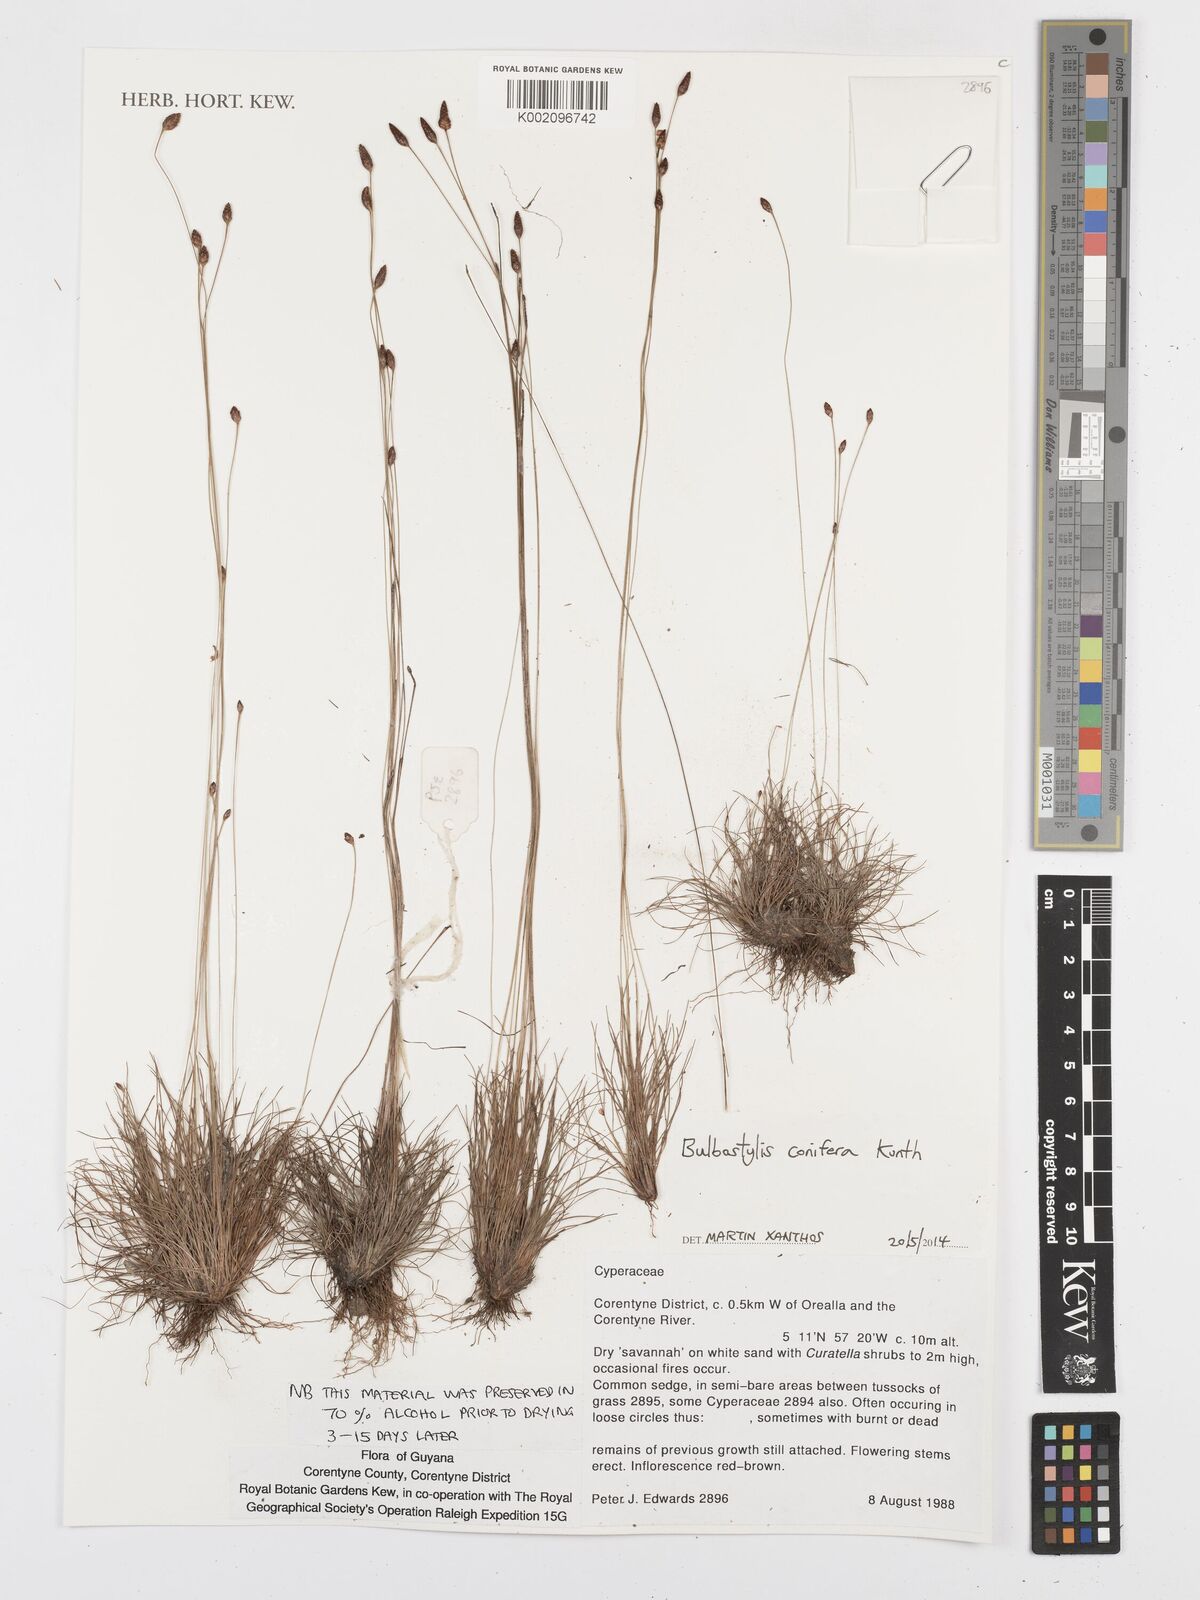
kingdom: Plantae
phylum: Tracheophyta
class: Liliopsida
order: Poales
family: Cyperaceae
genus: Bulbostylis
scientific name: Bulbostylis conifera
